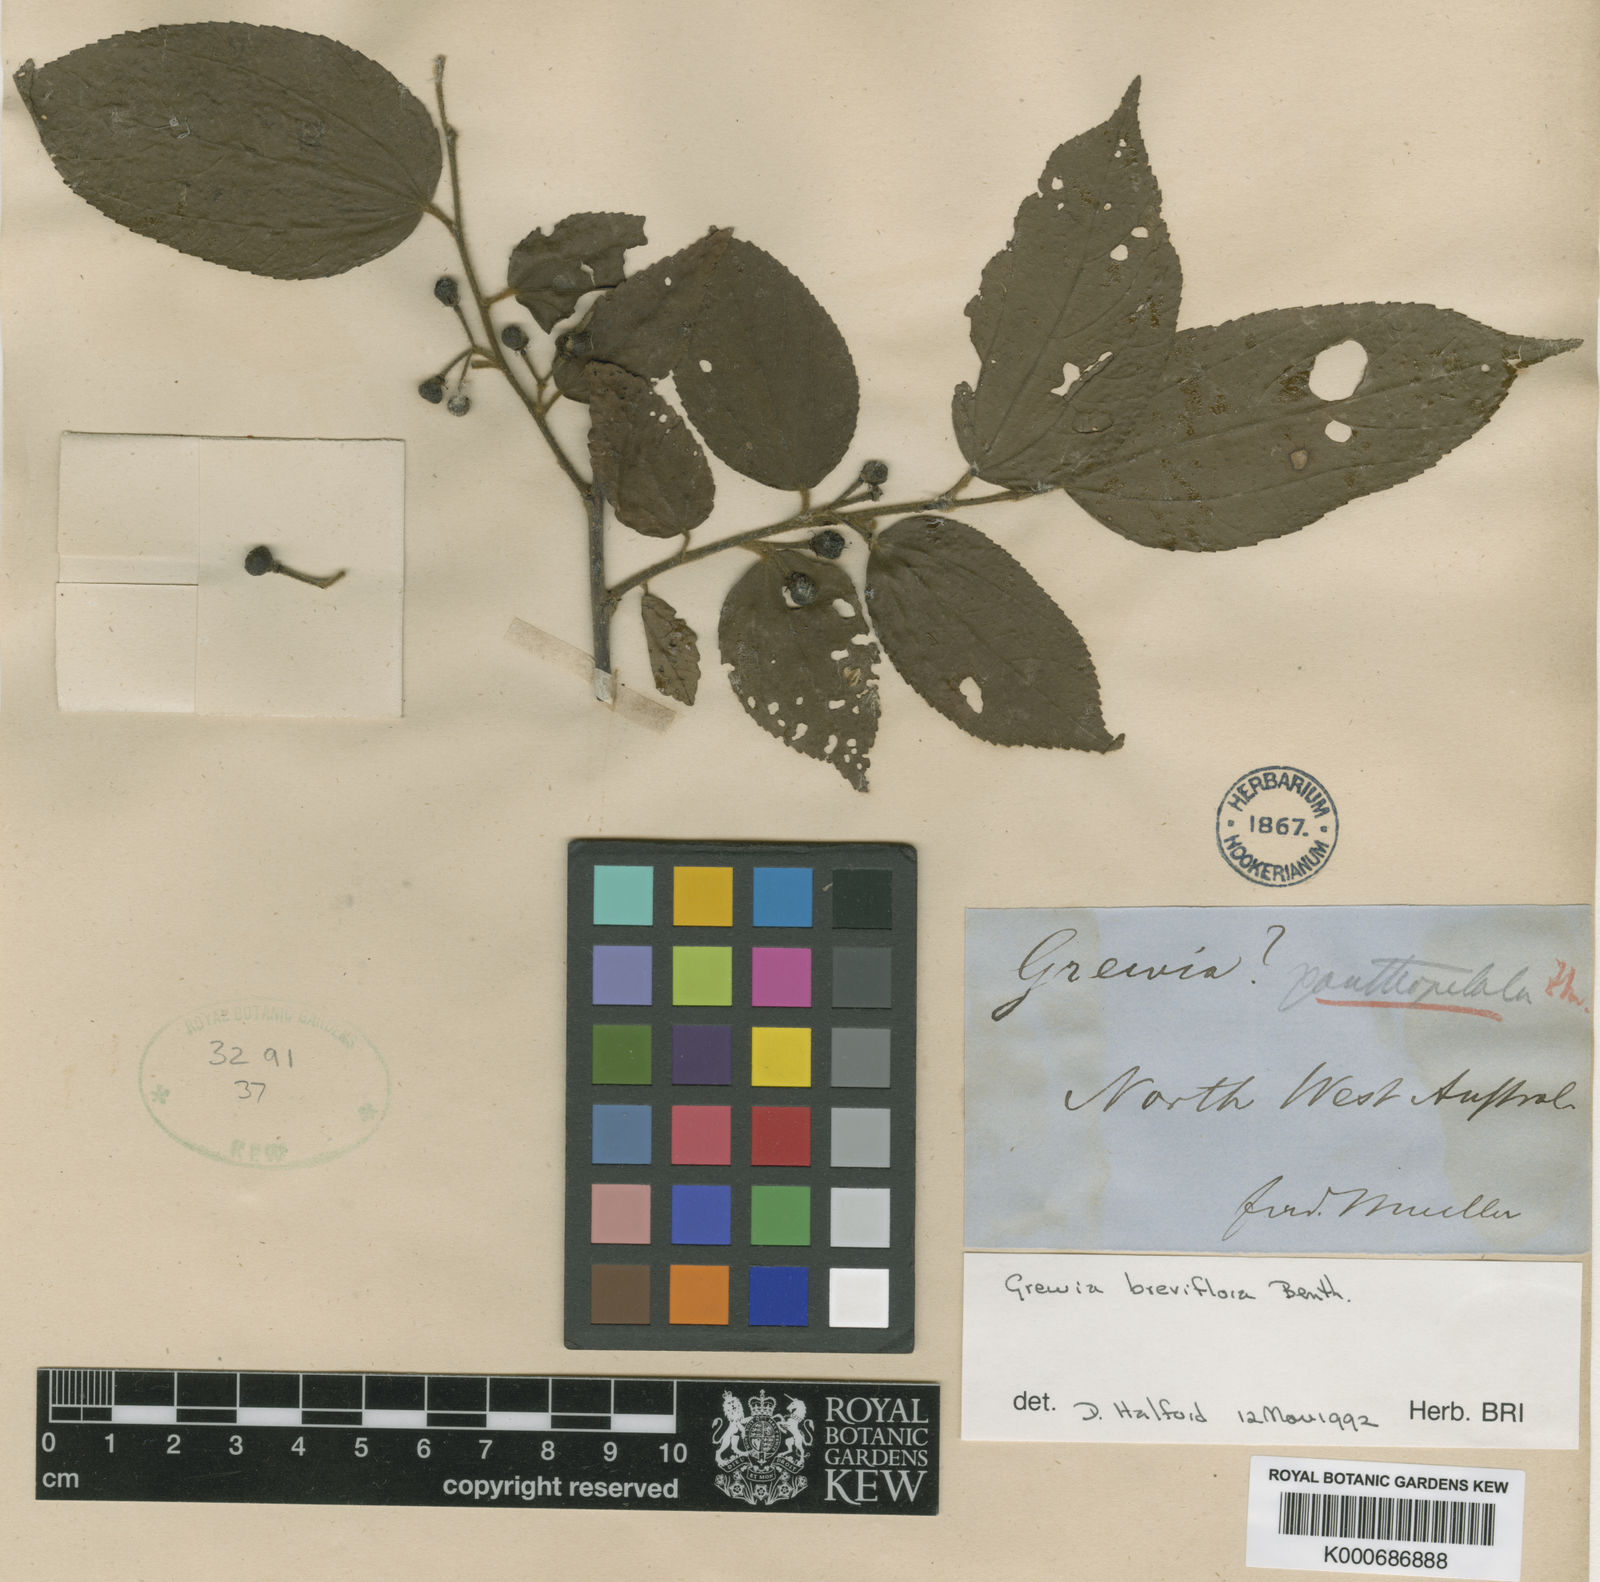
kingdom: Plantae
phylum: Tracheophyta
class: Magnoliopsida
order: Malvales
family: Malvaceae
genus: Grewia
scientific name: Grewia breviflora
